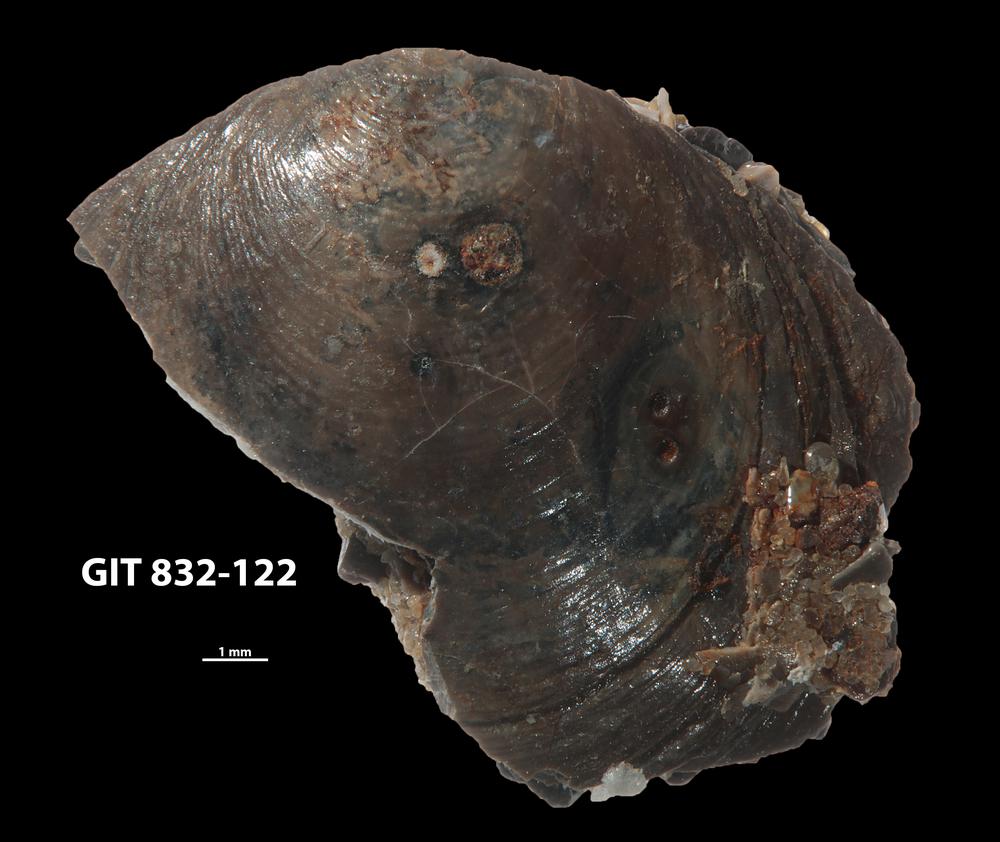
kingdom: Animalia
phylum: Brachiopoda
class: Lingulata
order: Lingulida
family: Obolidae
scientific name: Obolidae
